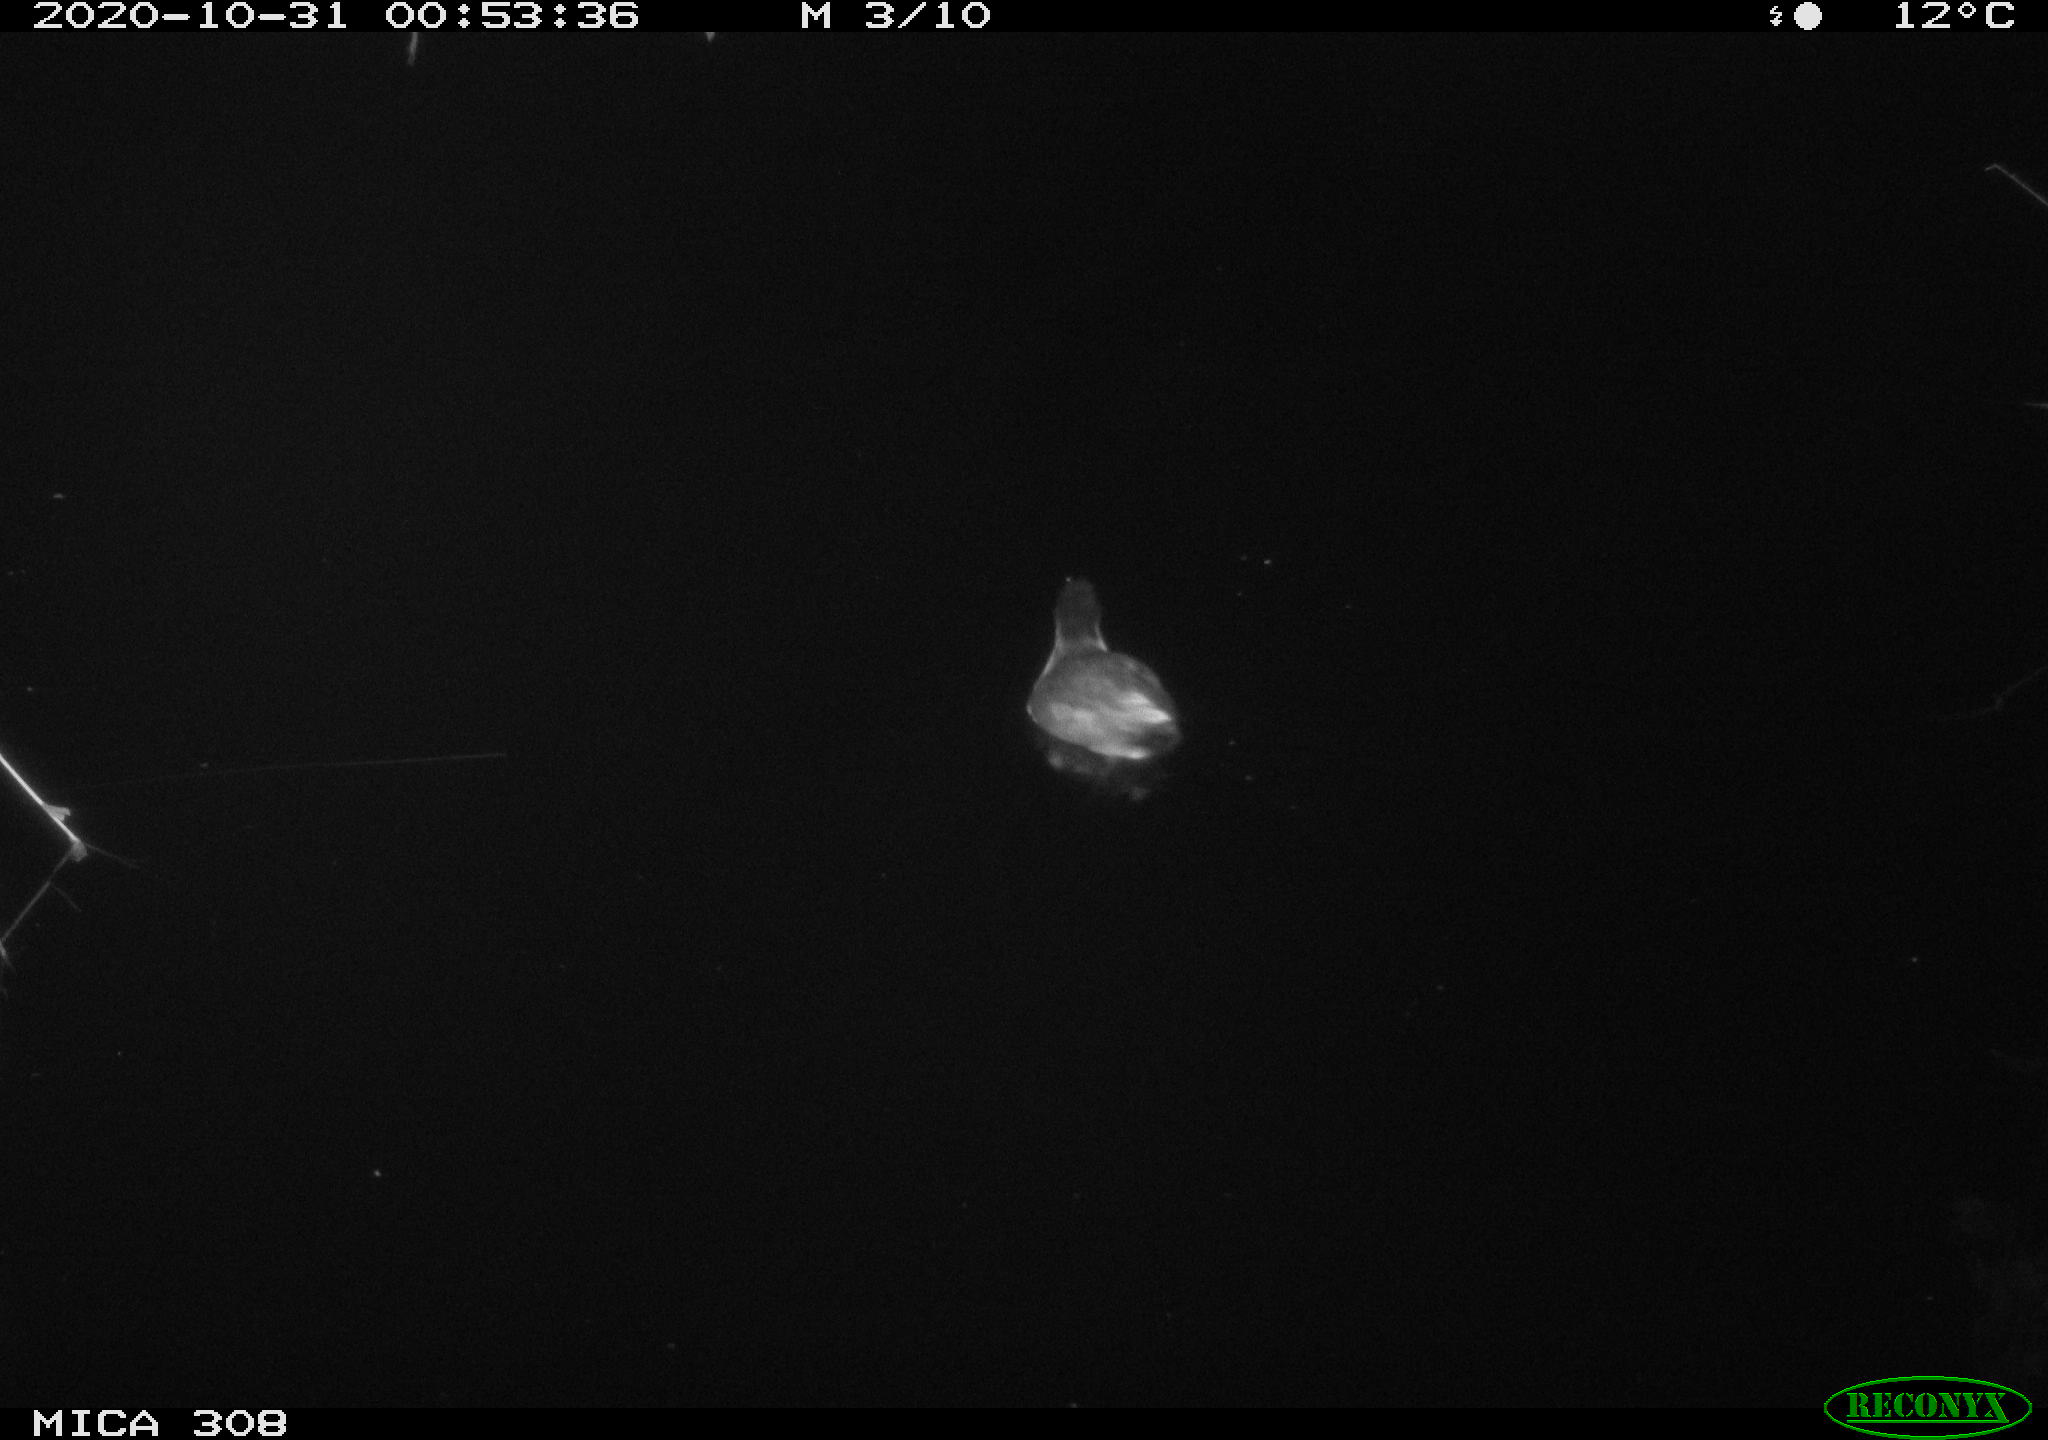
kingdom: Animalia
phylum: Chordata
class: Aves
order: Gruiformes
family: Rallidae
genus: Gallinula
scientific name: Gallinula chloropus
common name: Common moorhen
